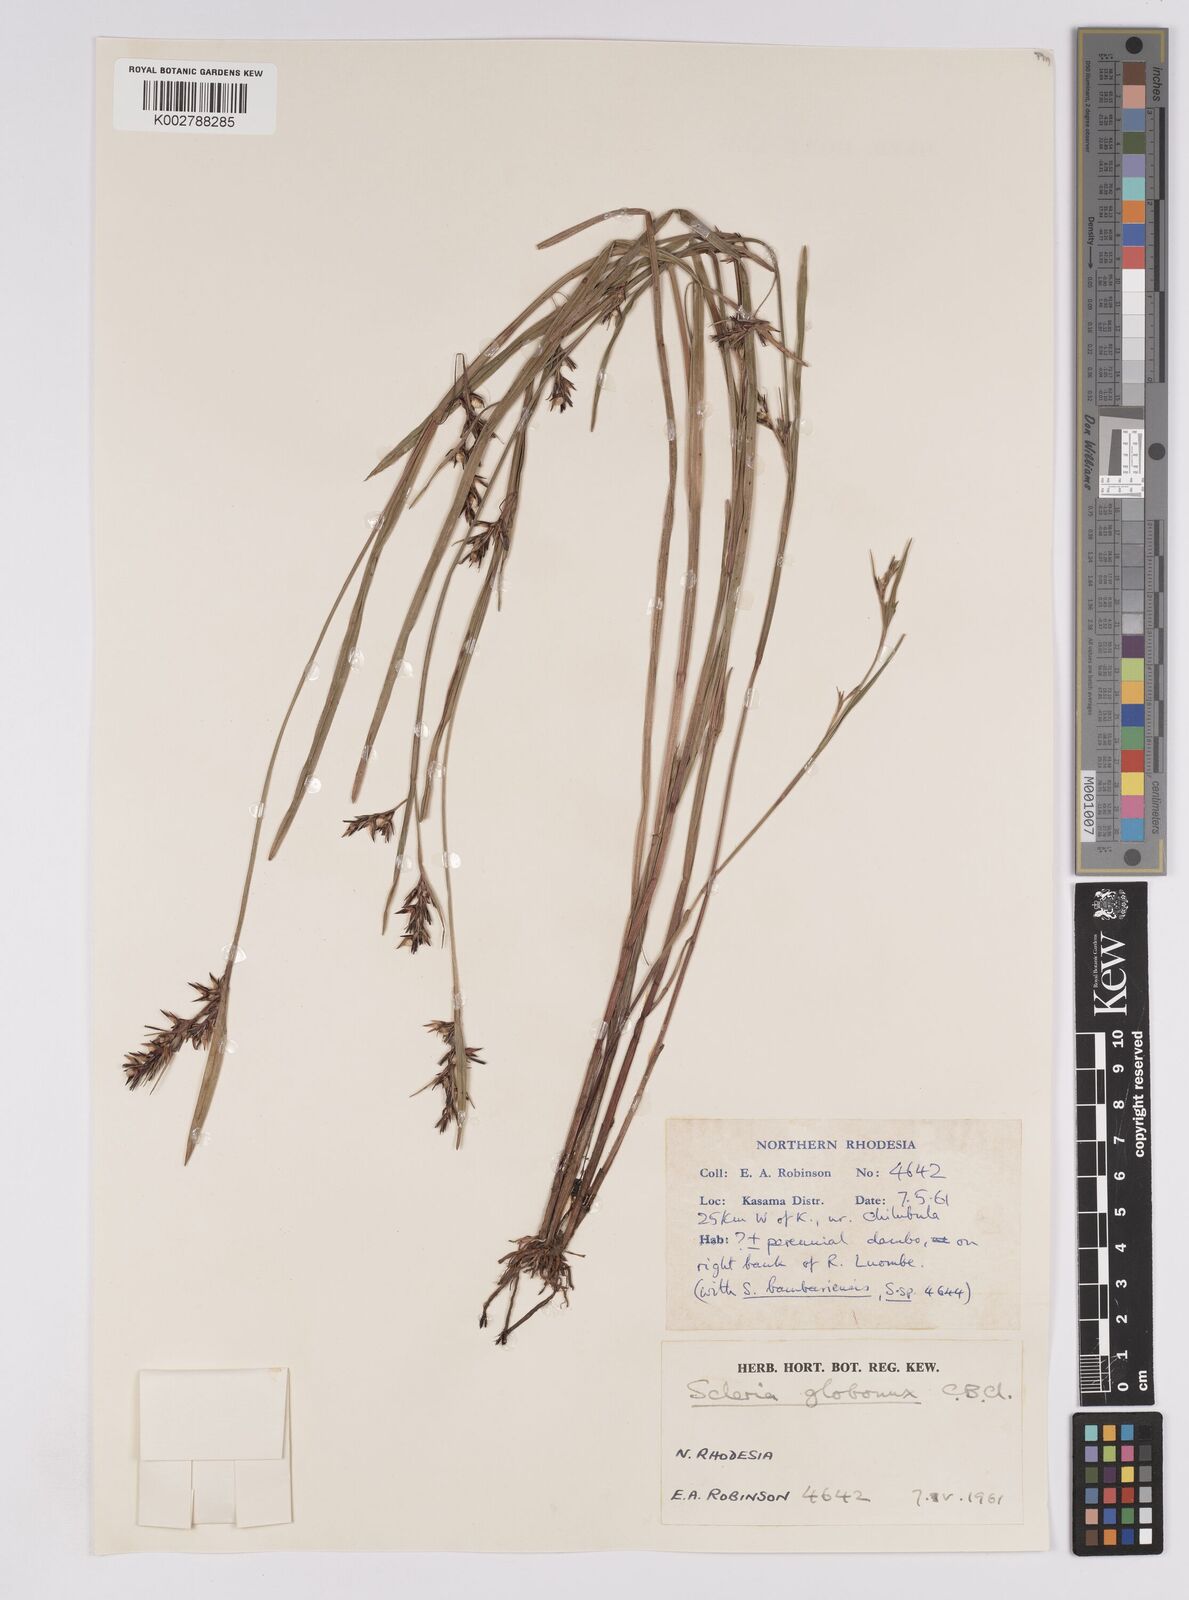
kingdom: Plantae
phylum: Tracheophyta
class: Liliopsida
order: Poales
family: Cyperaceae
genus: Scleria
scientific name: Scleria globonux
